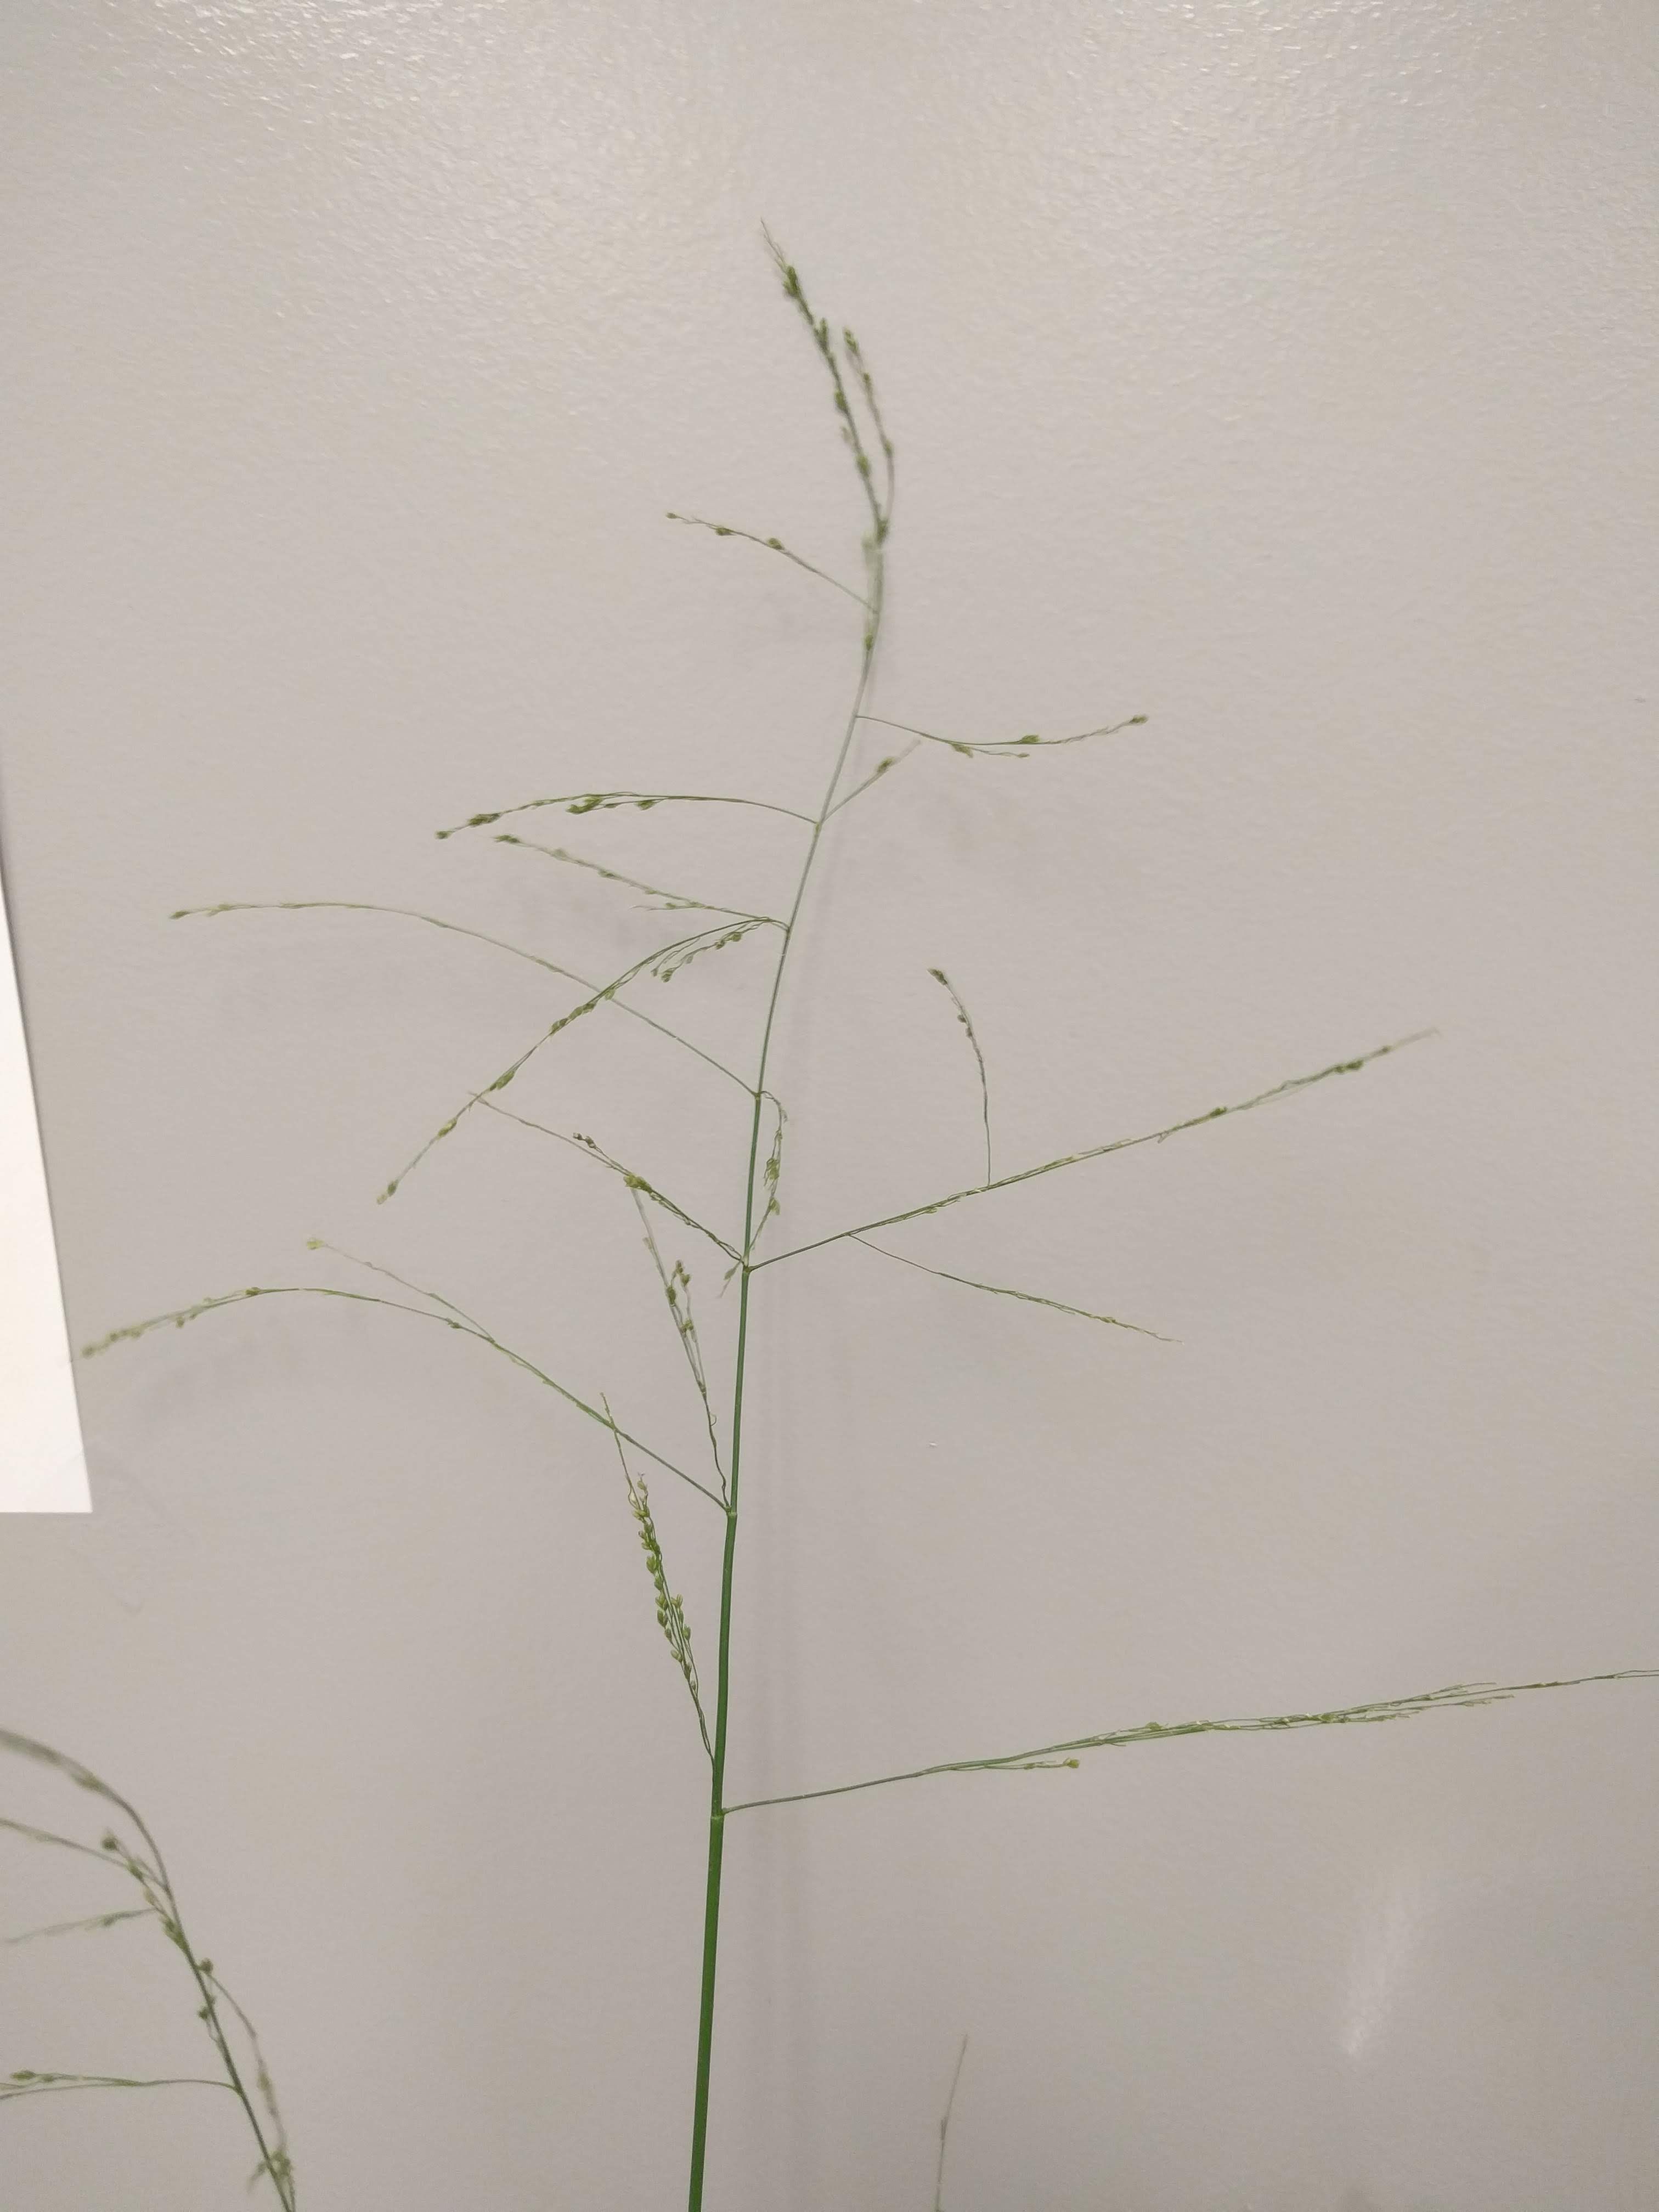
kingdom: Plantae
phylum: Tracheophyta
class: Liliopsida
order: Poales
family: Poaceae
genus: Glyceria
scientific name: Glyceria striata
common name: Fowl manna grass
